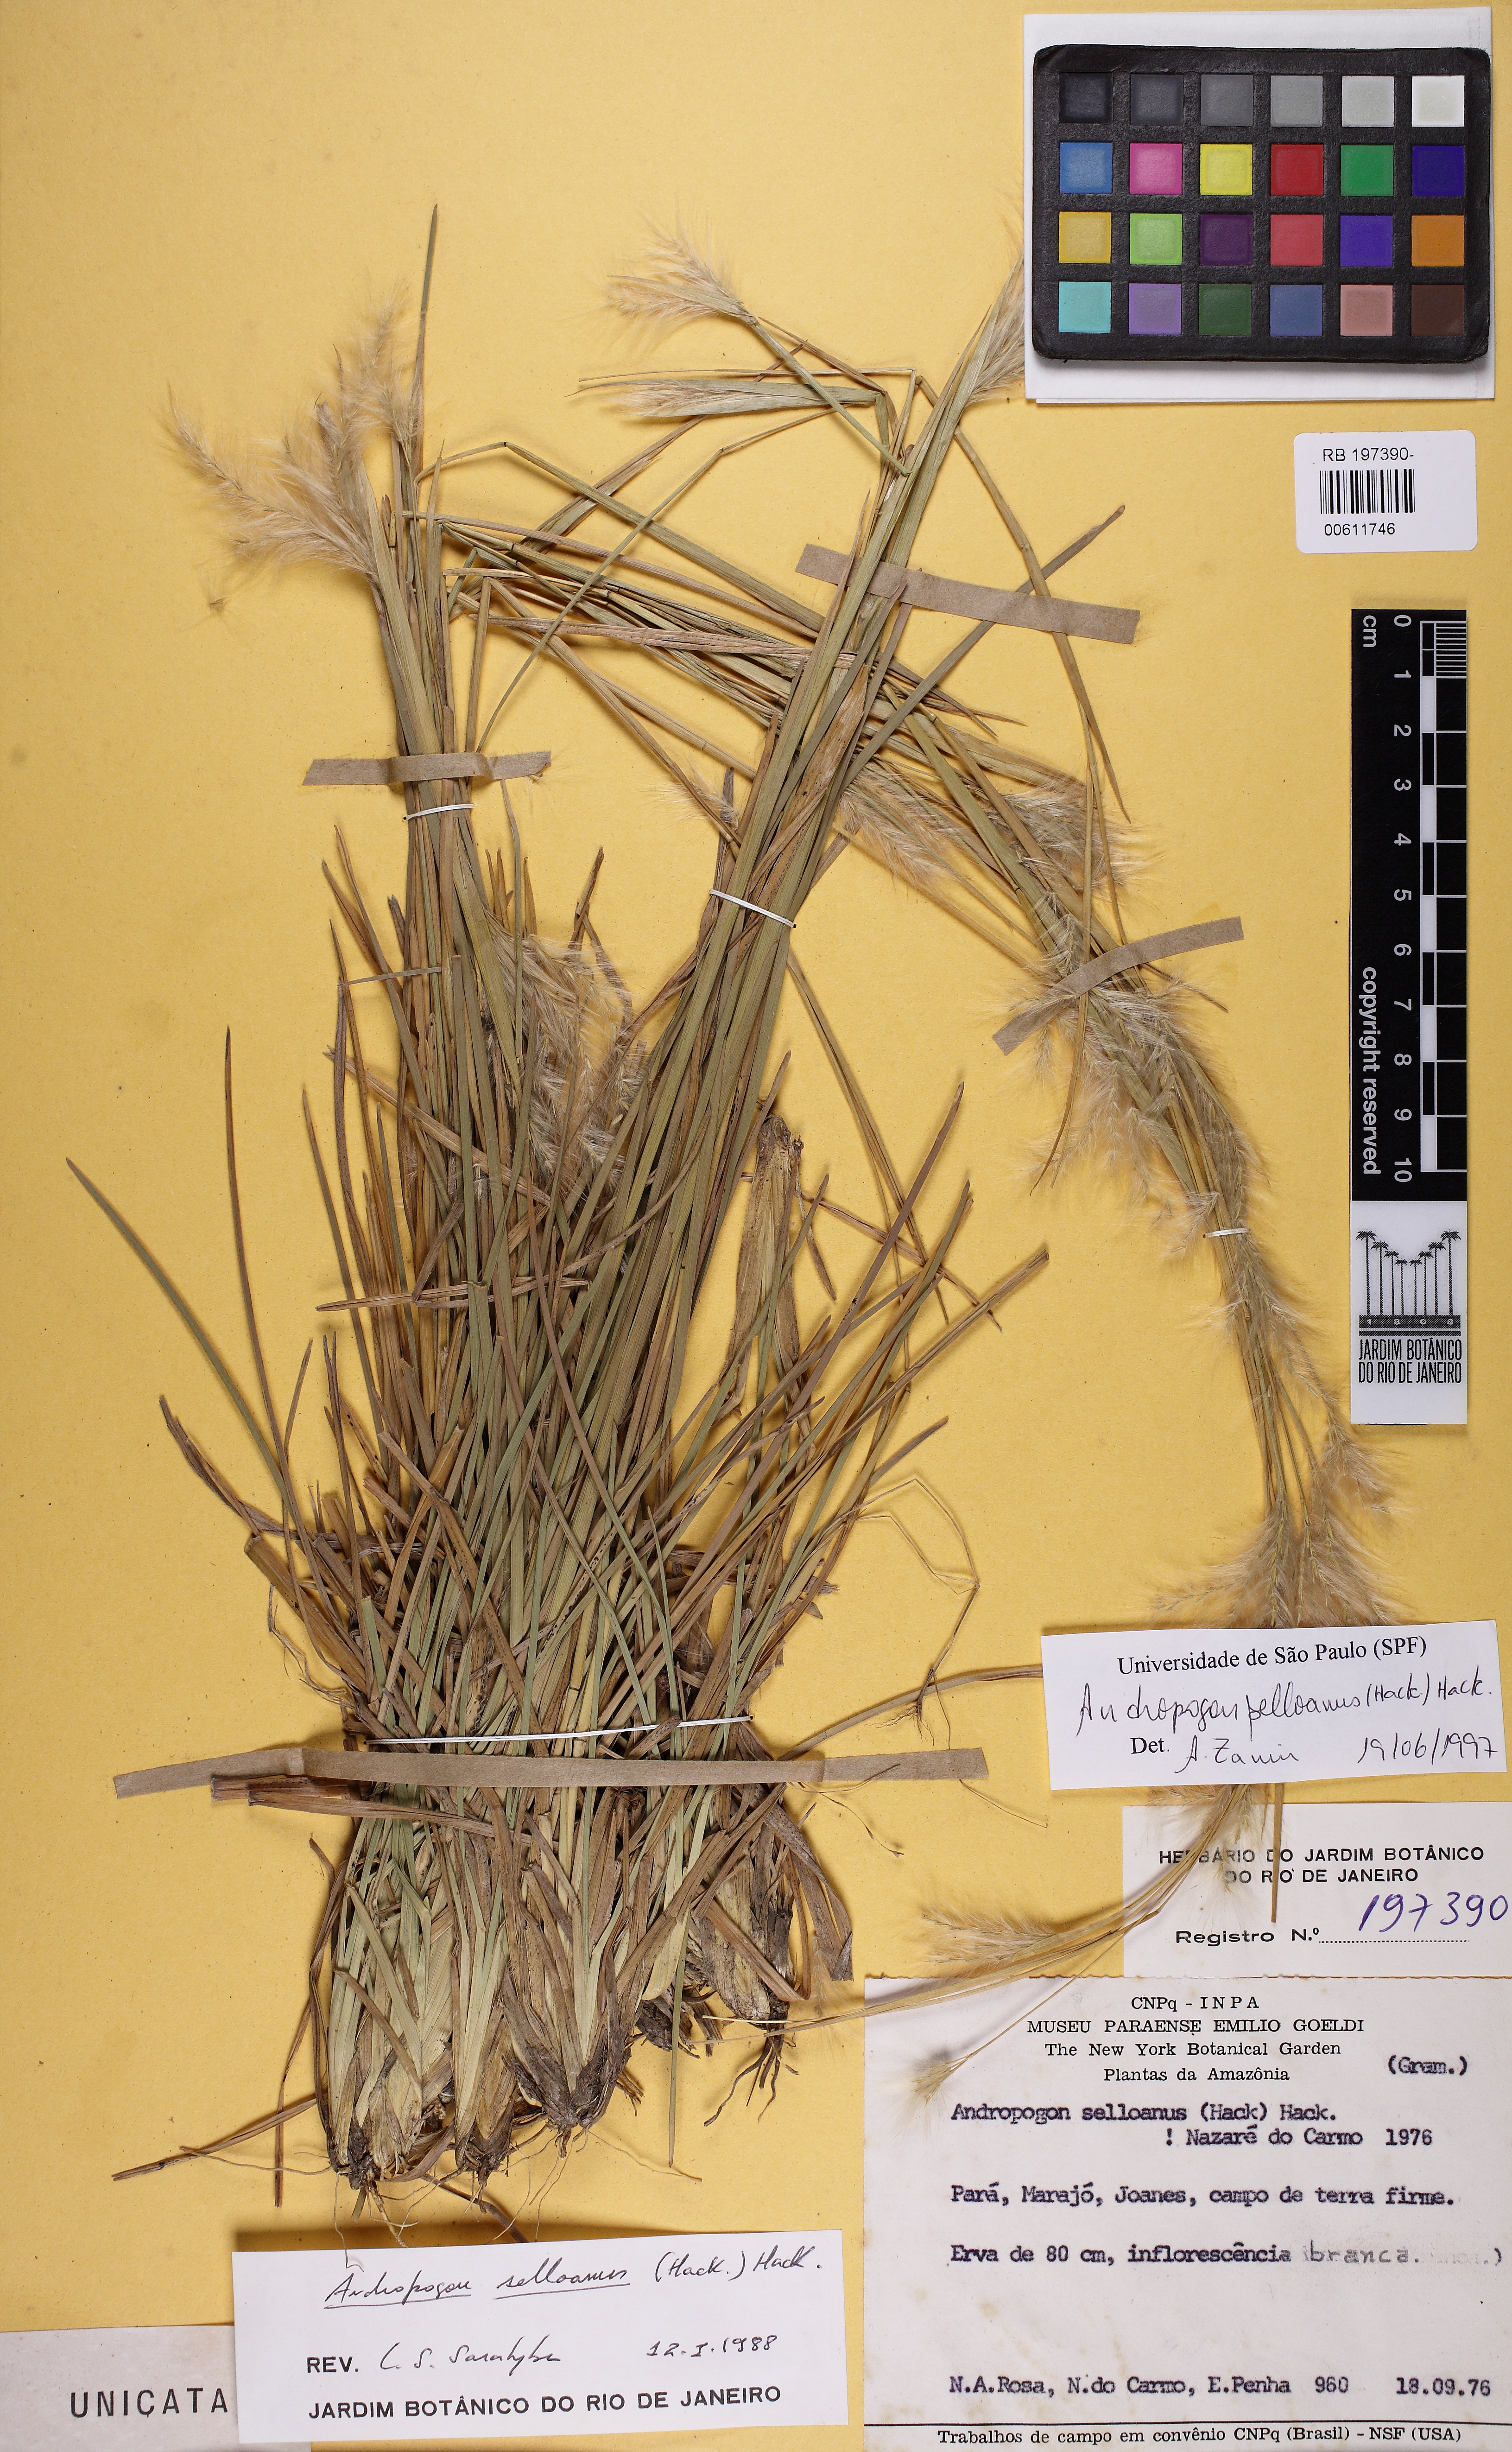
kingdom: Plantae
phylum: Tracheophyta
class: Liliopsida
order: Poales
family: Poaceae
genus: Andropogon
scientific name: Andropogon selloanus
